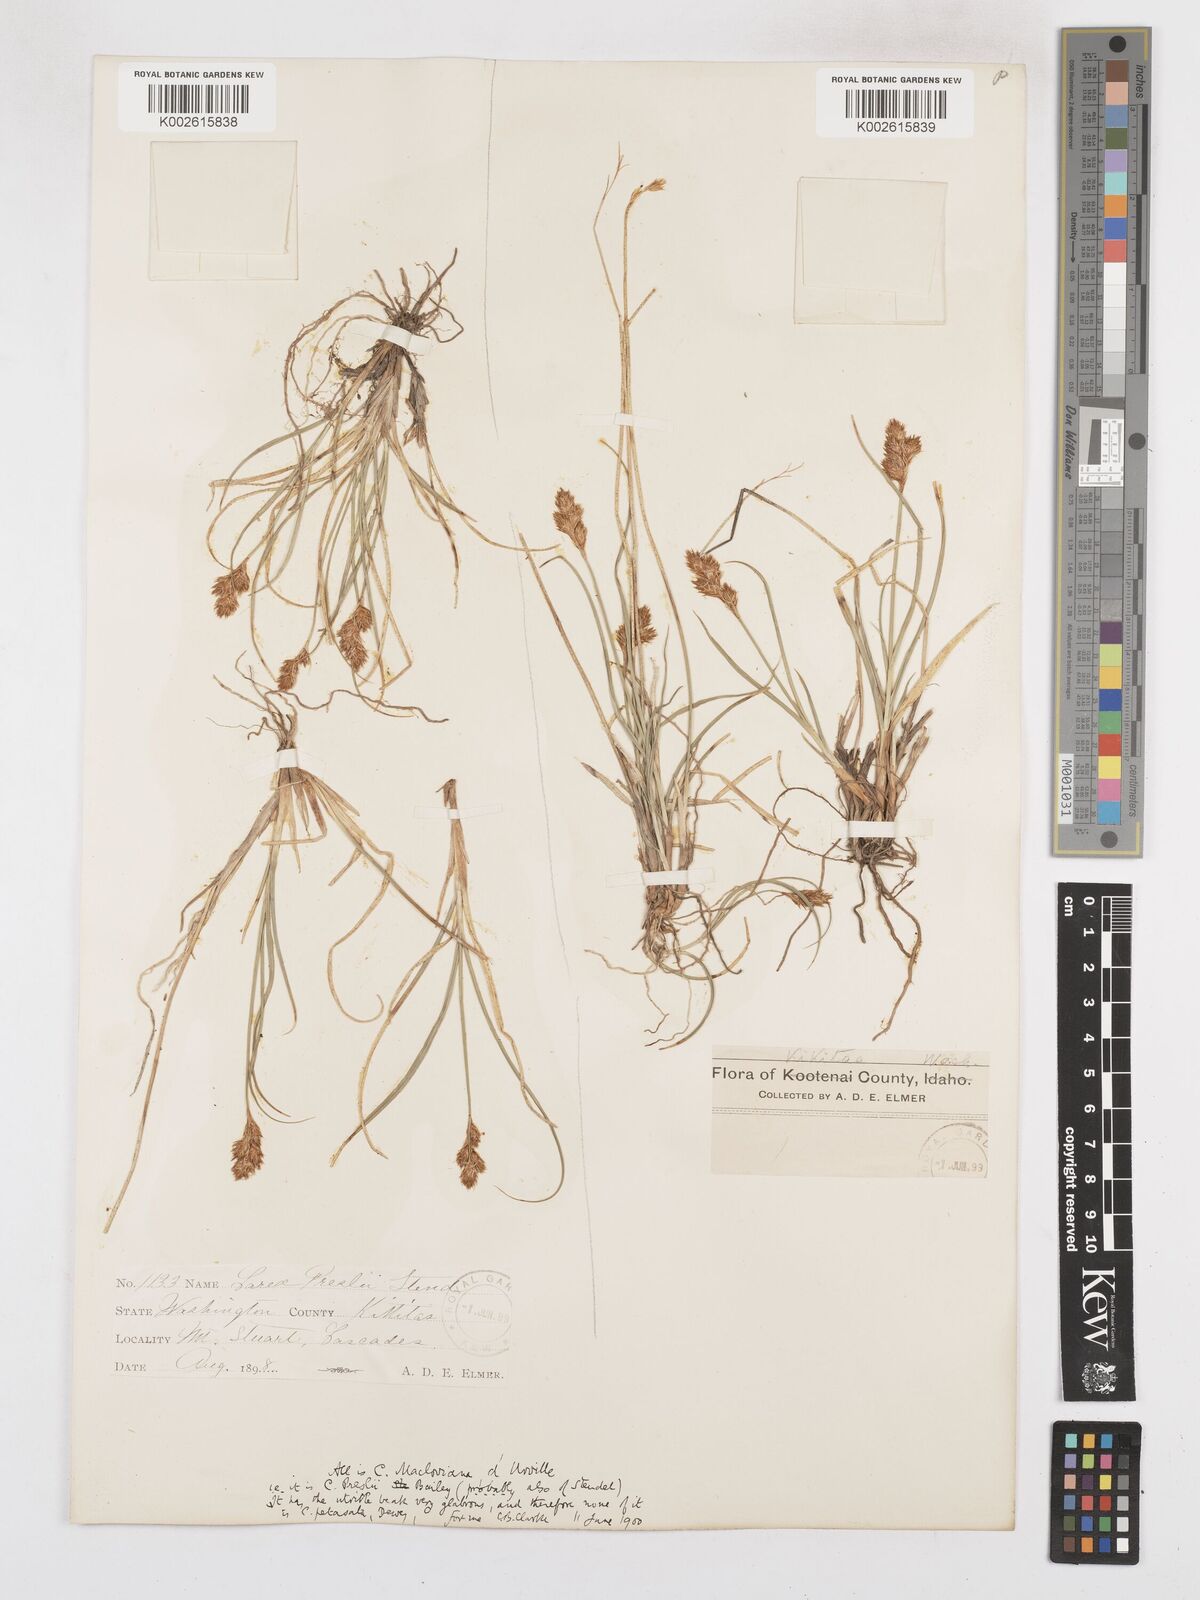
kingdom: Plantae
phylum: Tracheophyta
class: Liliopsida
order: Poales
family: Cyperaceae
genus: Carex
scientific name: Carex petasata
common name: Liddon's sedge
